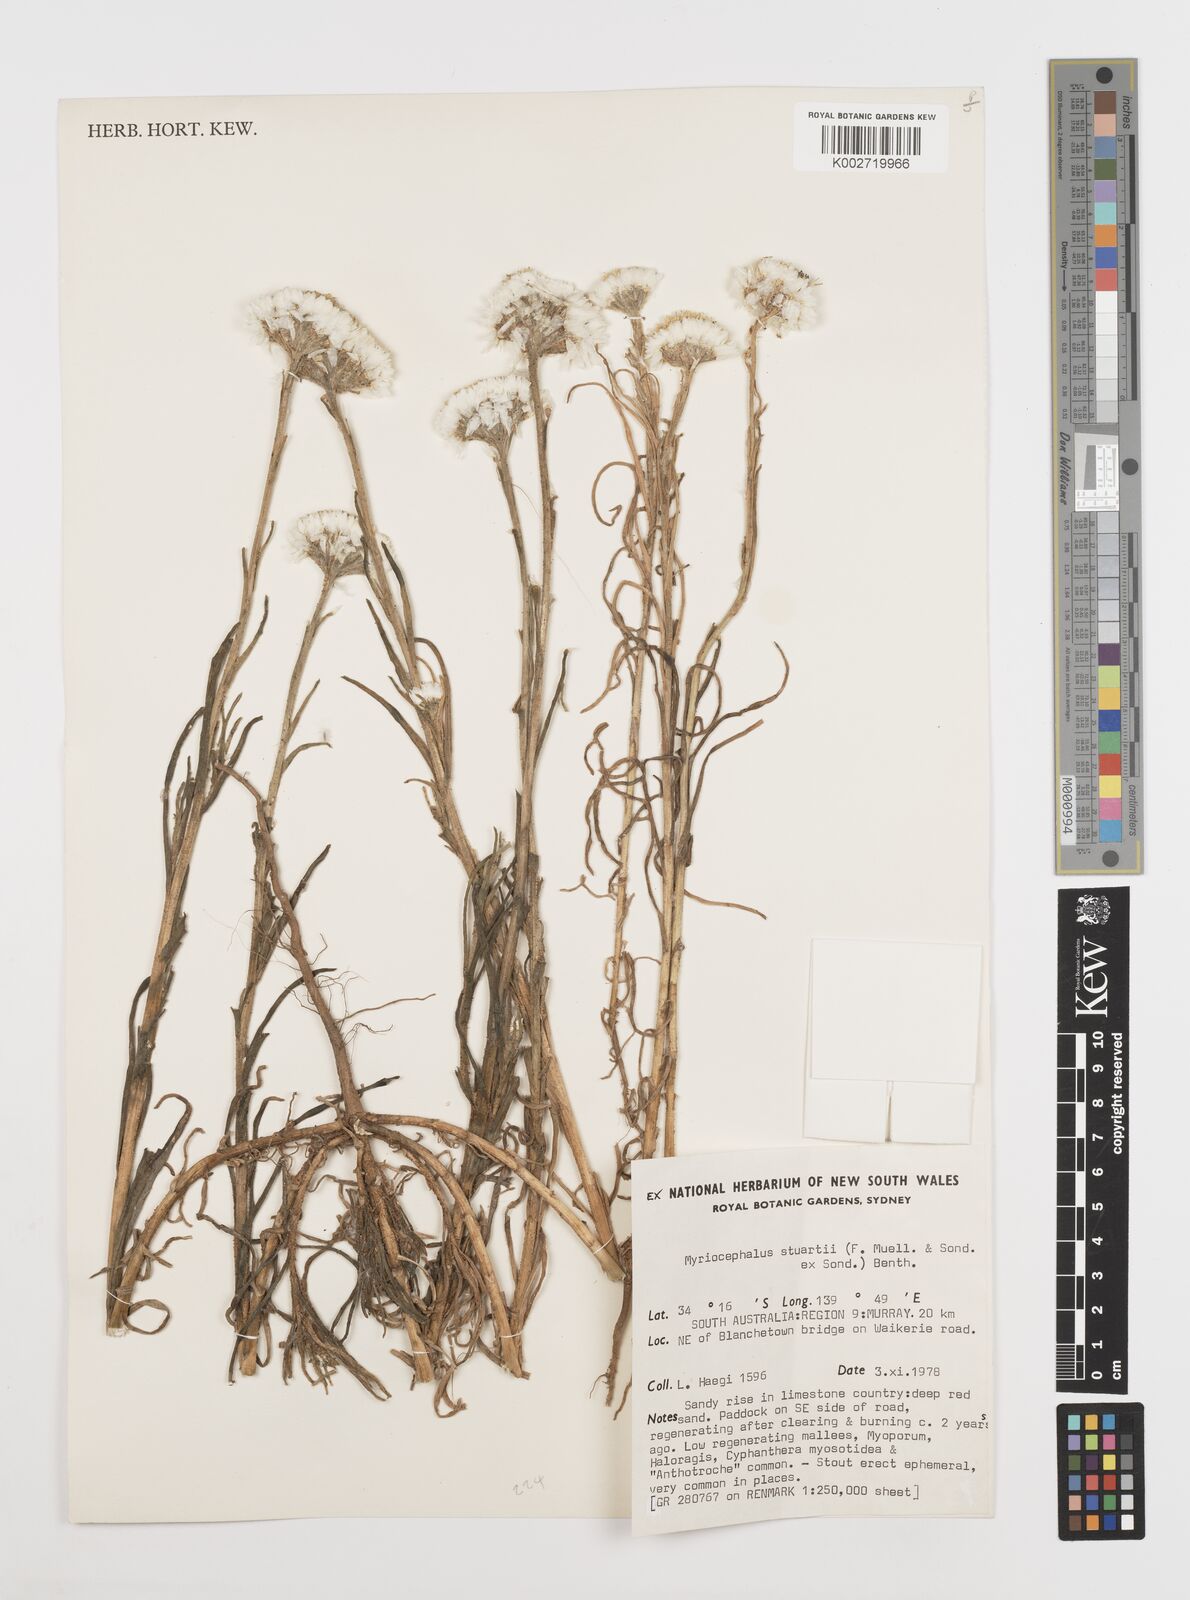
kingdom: Plantae
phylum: Tracheophyta
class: Magnoliopsida
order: Asterales
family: Asteraceae
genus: Polycalymma
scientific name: Polycalymma stuartii
